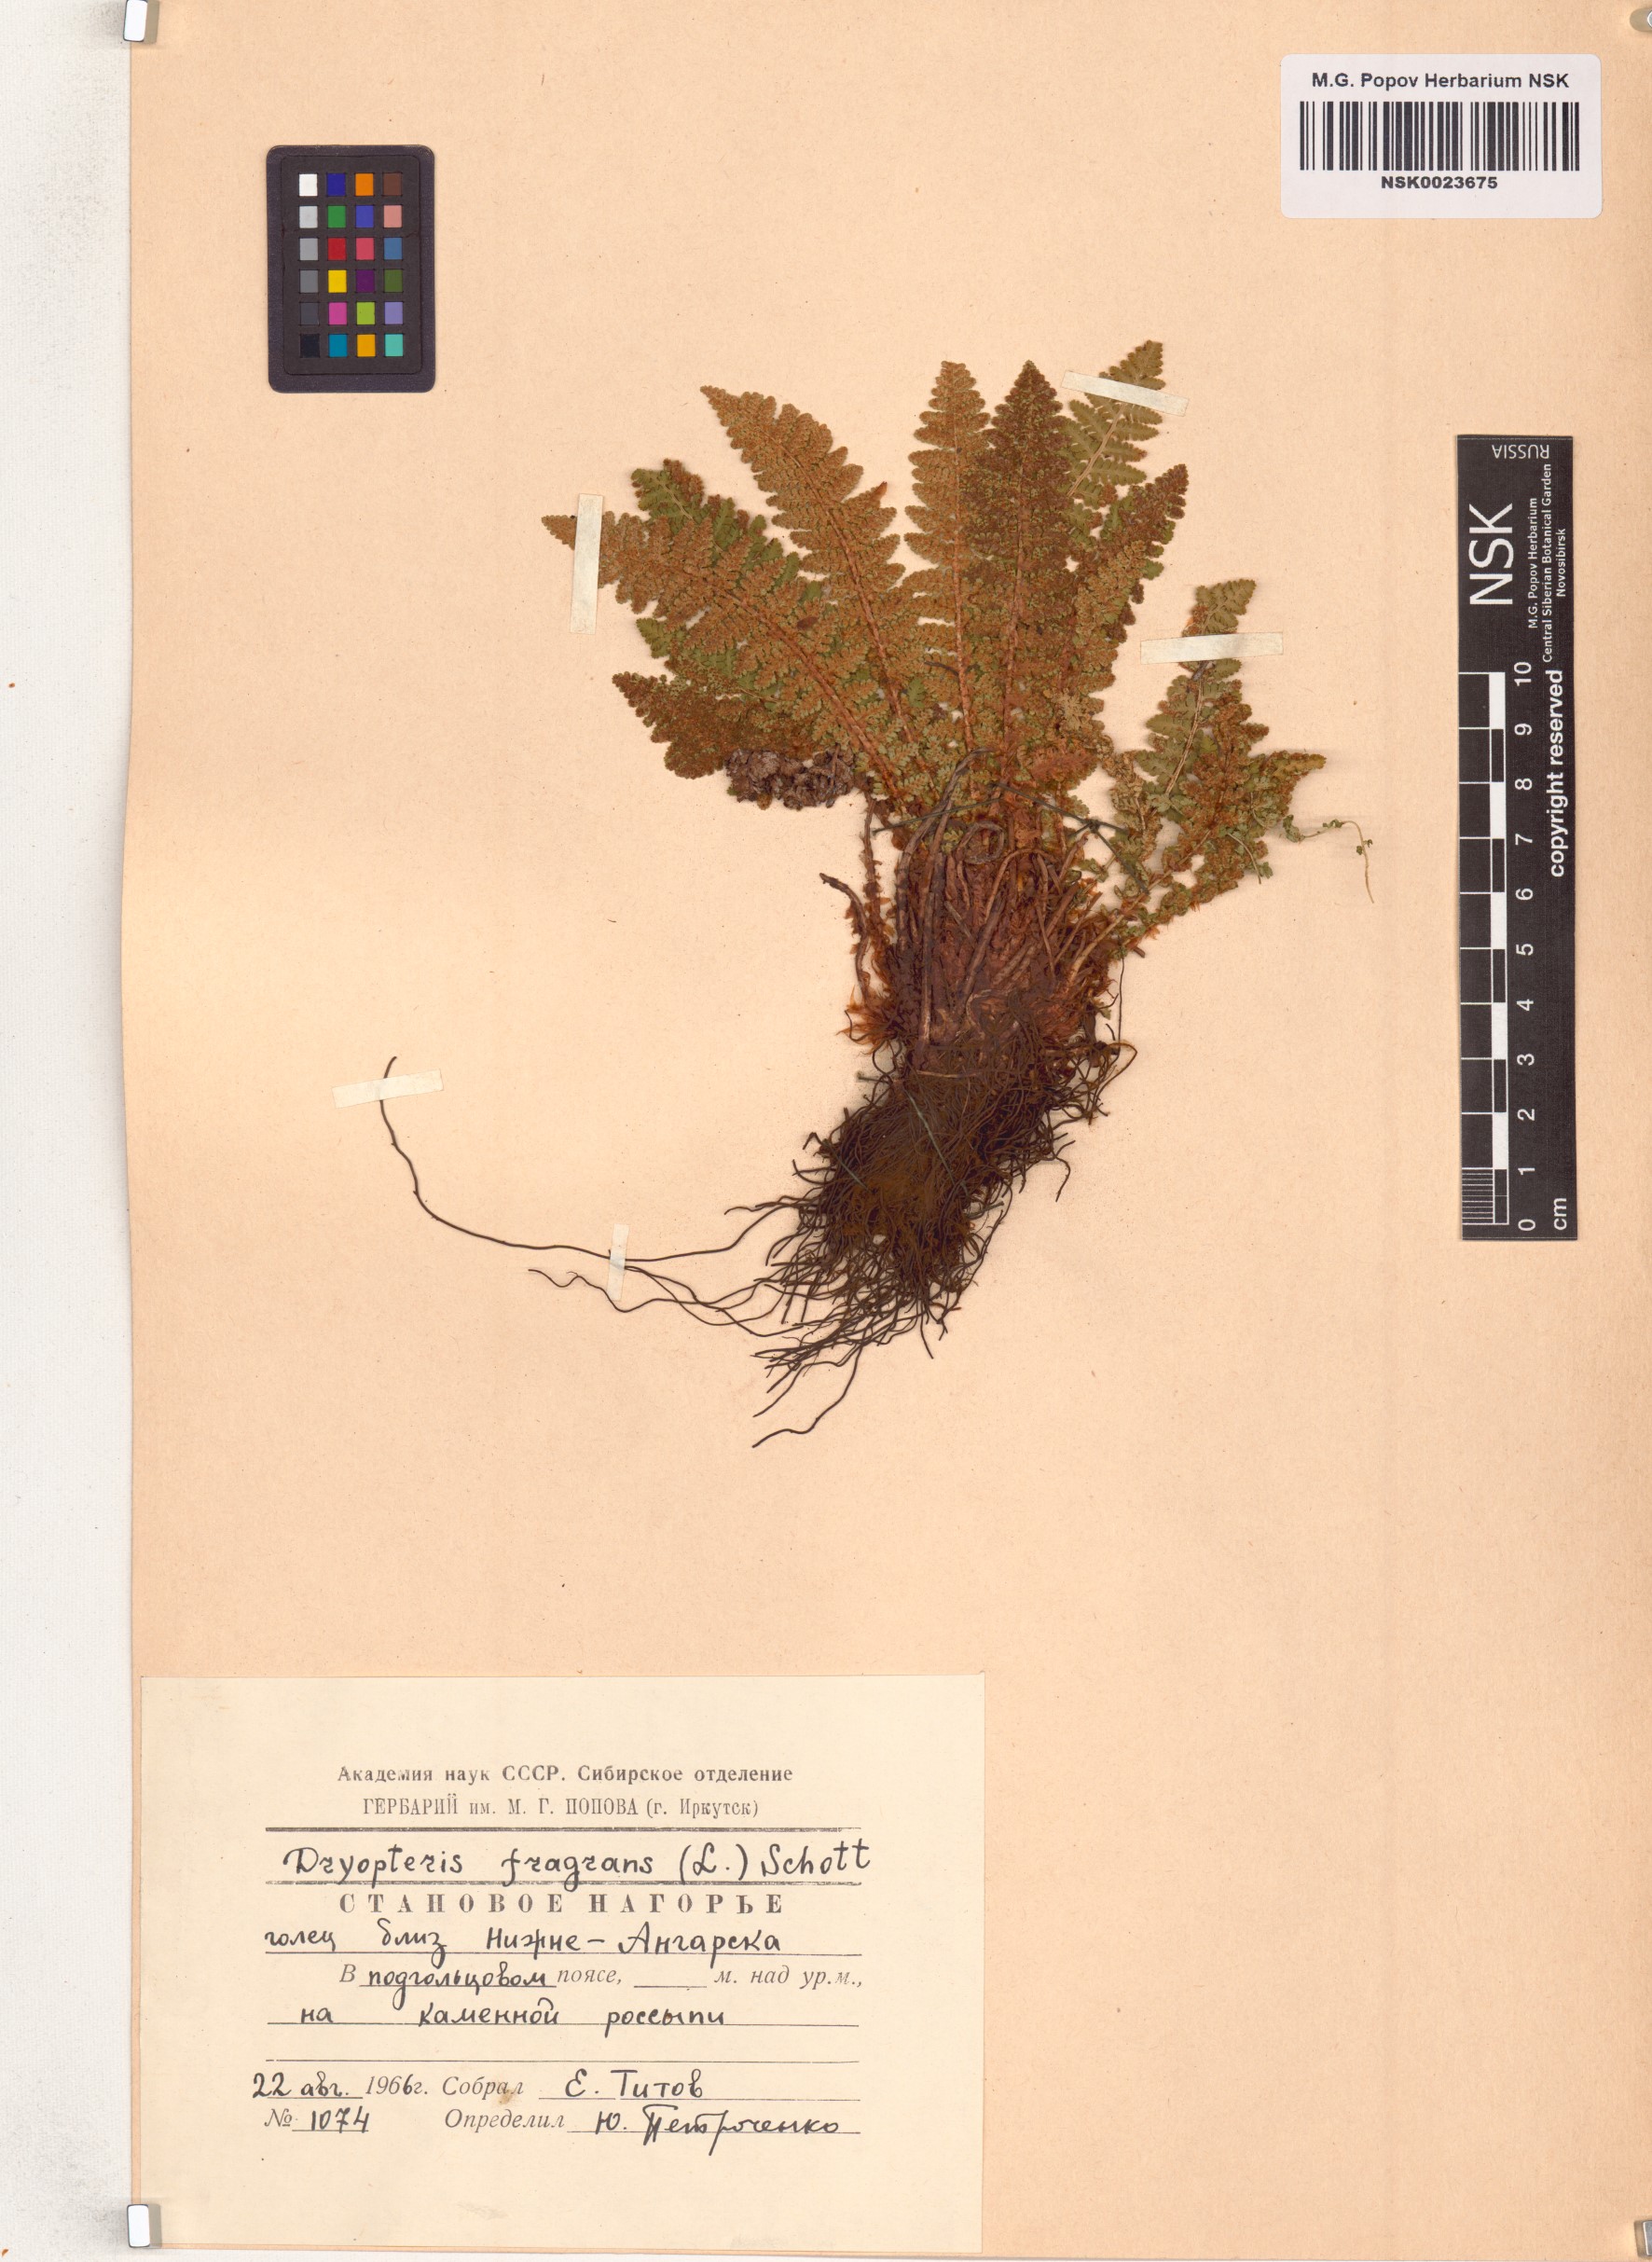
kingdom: Plantae
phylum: Tracheophyta
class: Polypodiopsida
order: Polypodiales
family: Dryopteridaceae
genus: Dryopteris
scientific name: Dryopteris fragrans
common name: Fragrant wood fern
